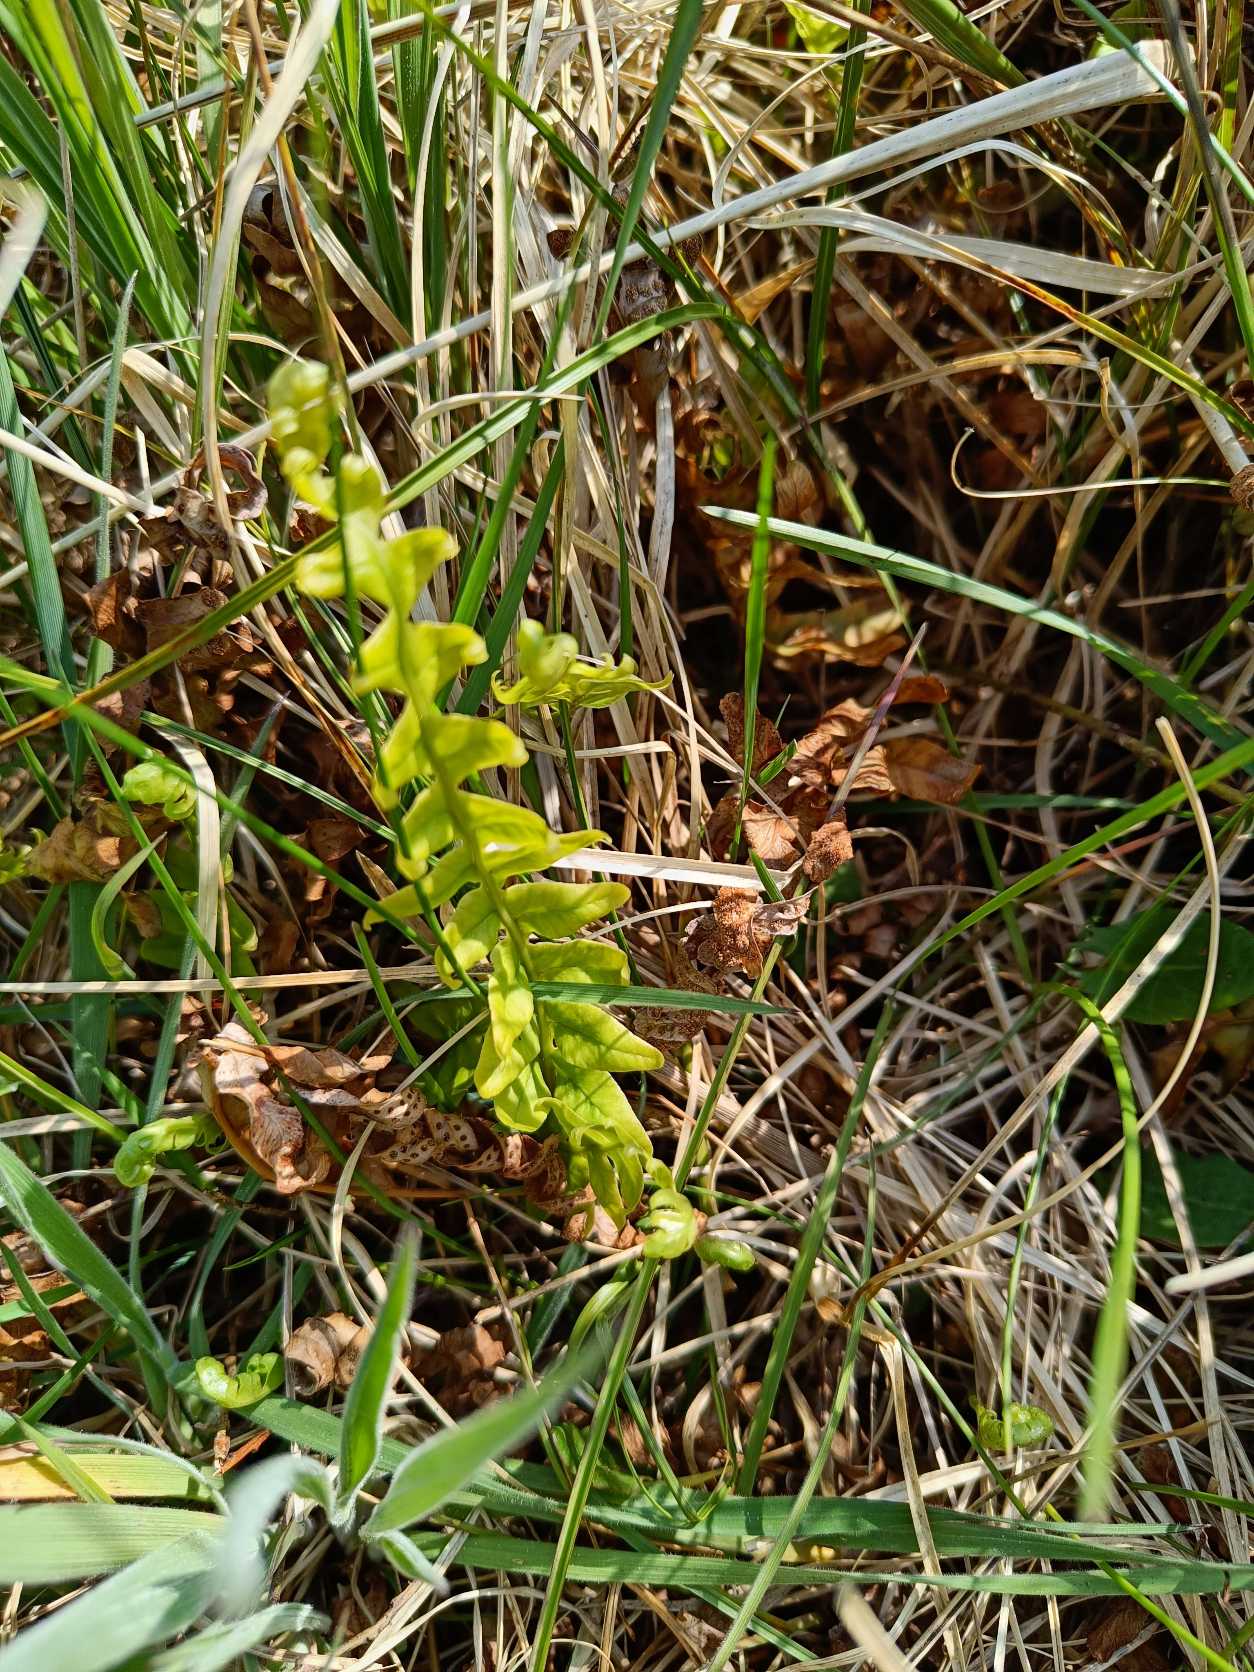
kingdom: Plantae
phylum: Tracheophyta
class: Polypodiopsida
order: Polypodiales
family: Polypodiaceae
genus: Polypodium
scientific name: Polypodium vulgare
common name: Almindelig engelsød
